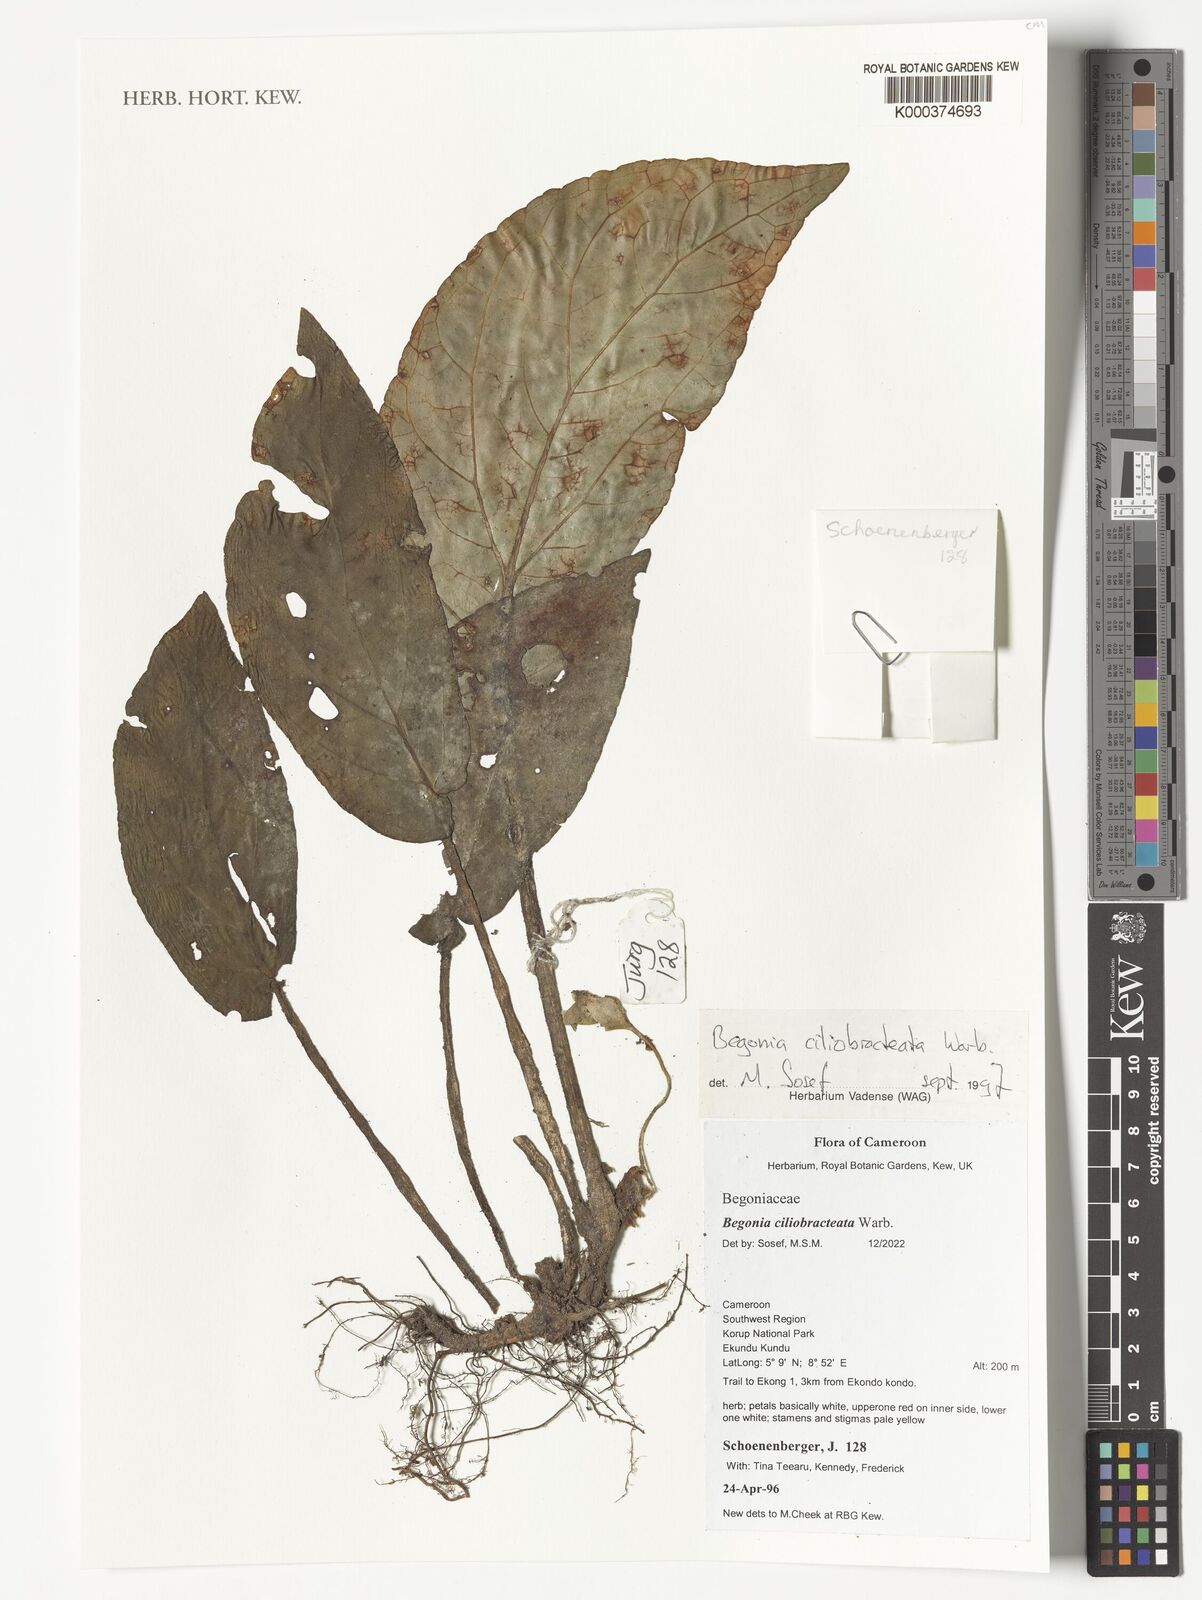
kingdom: Plantae
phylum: Tracheophyta
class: Magnoliopsida
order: Cucurbitales
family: Begoniaceae
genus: Begonia
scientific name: Begonia ciliobracteata
